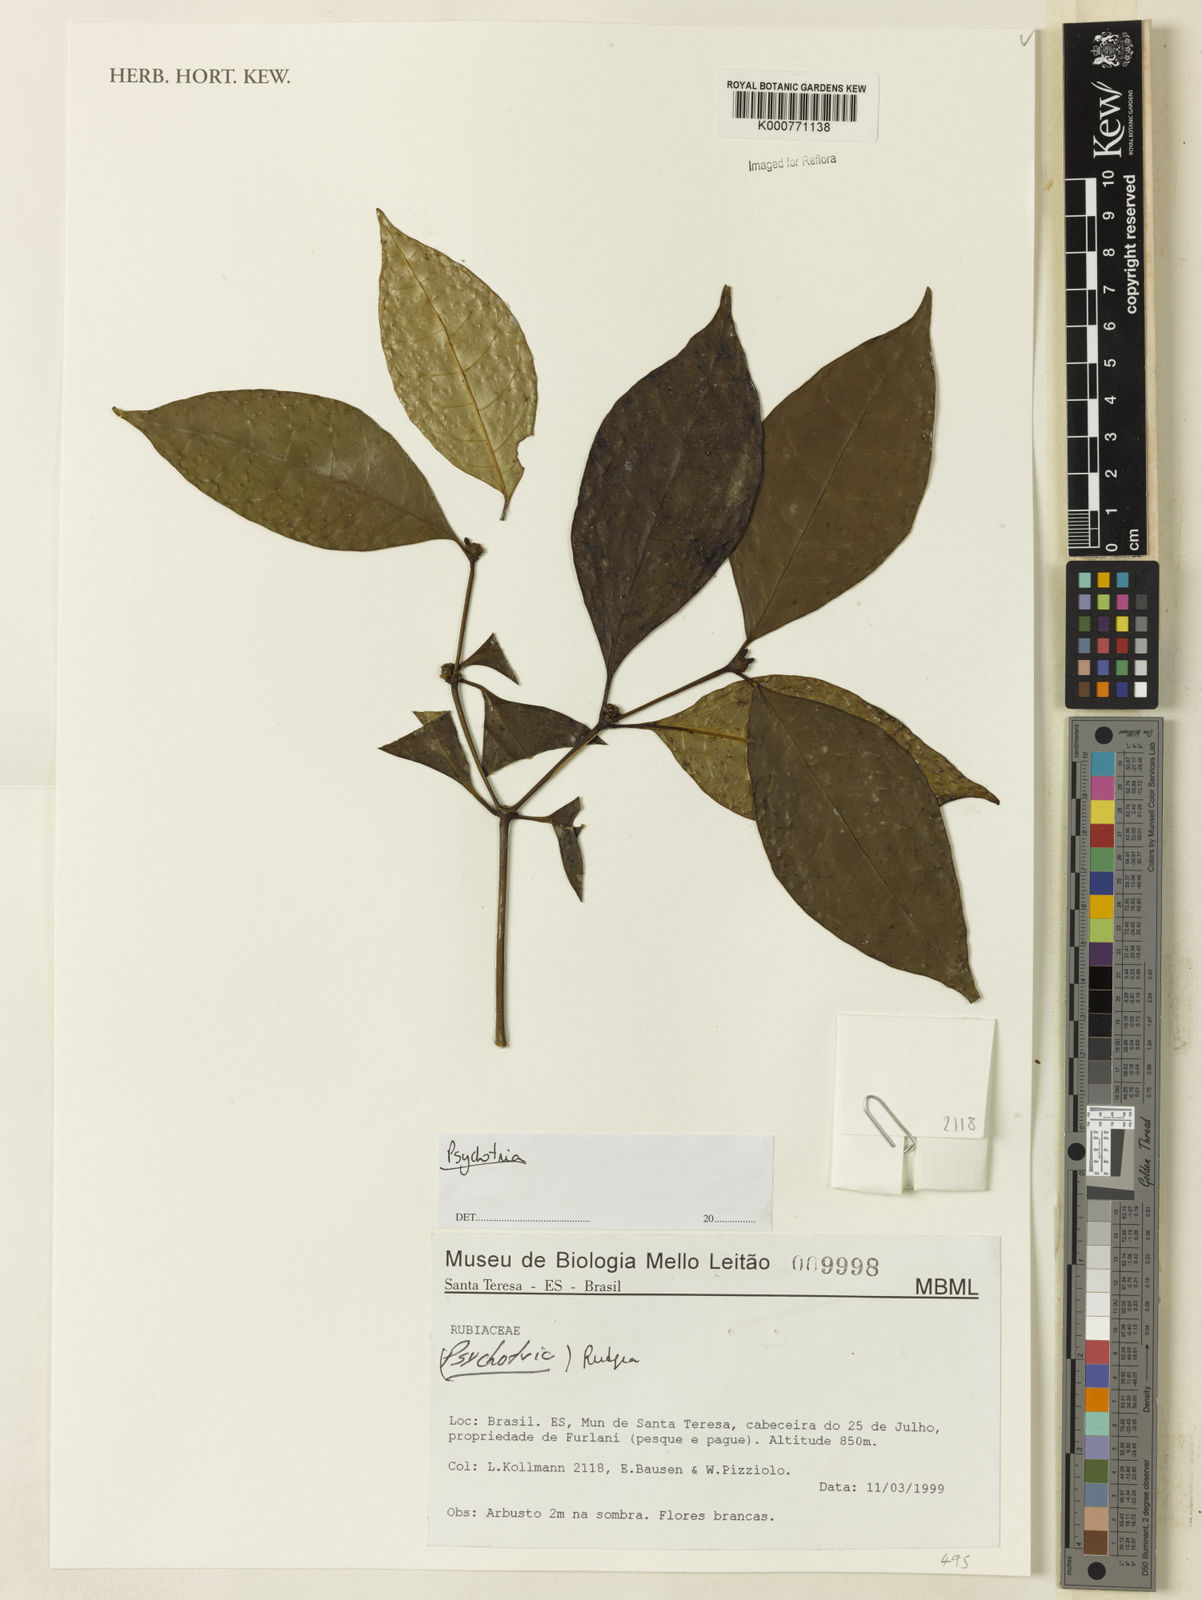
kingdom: Plantae
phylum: Tracheophyta
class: Magnoliopsida
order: Gentianales
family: Rubiaceae
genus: Rudgea
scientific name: Rudgea
